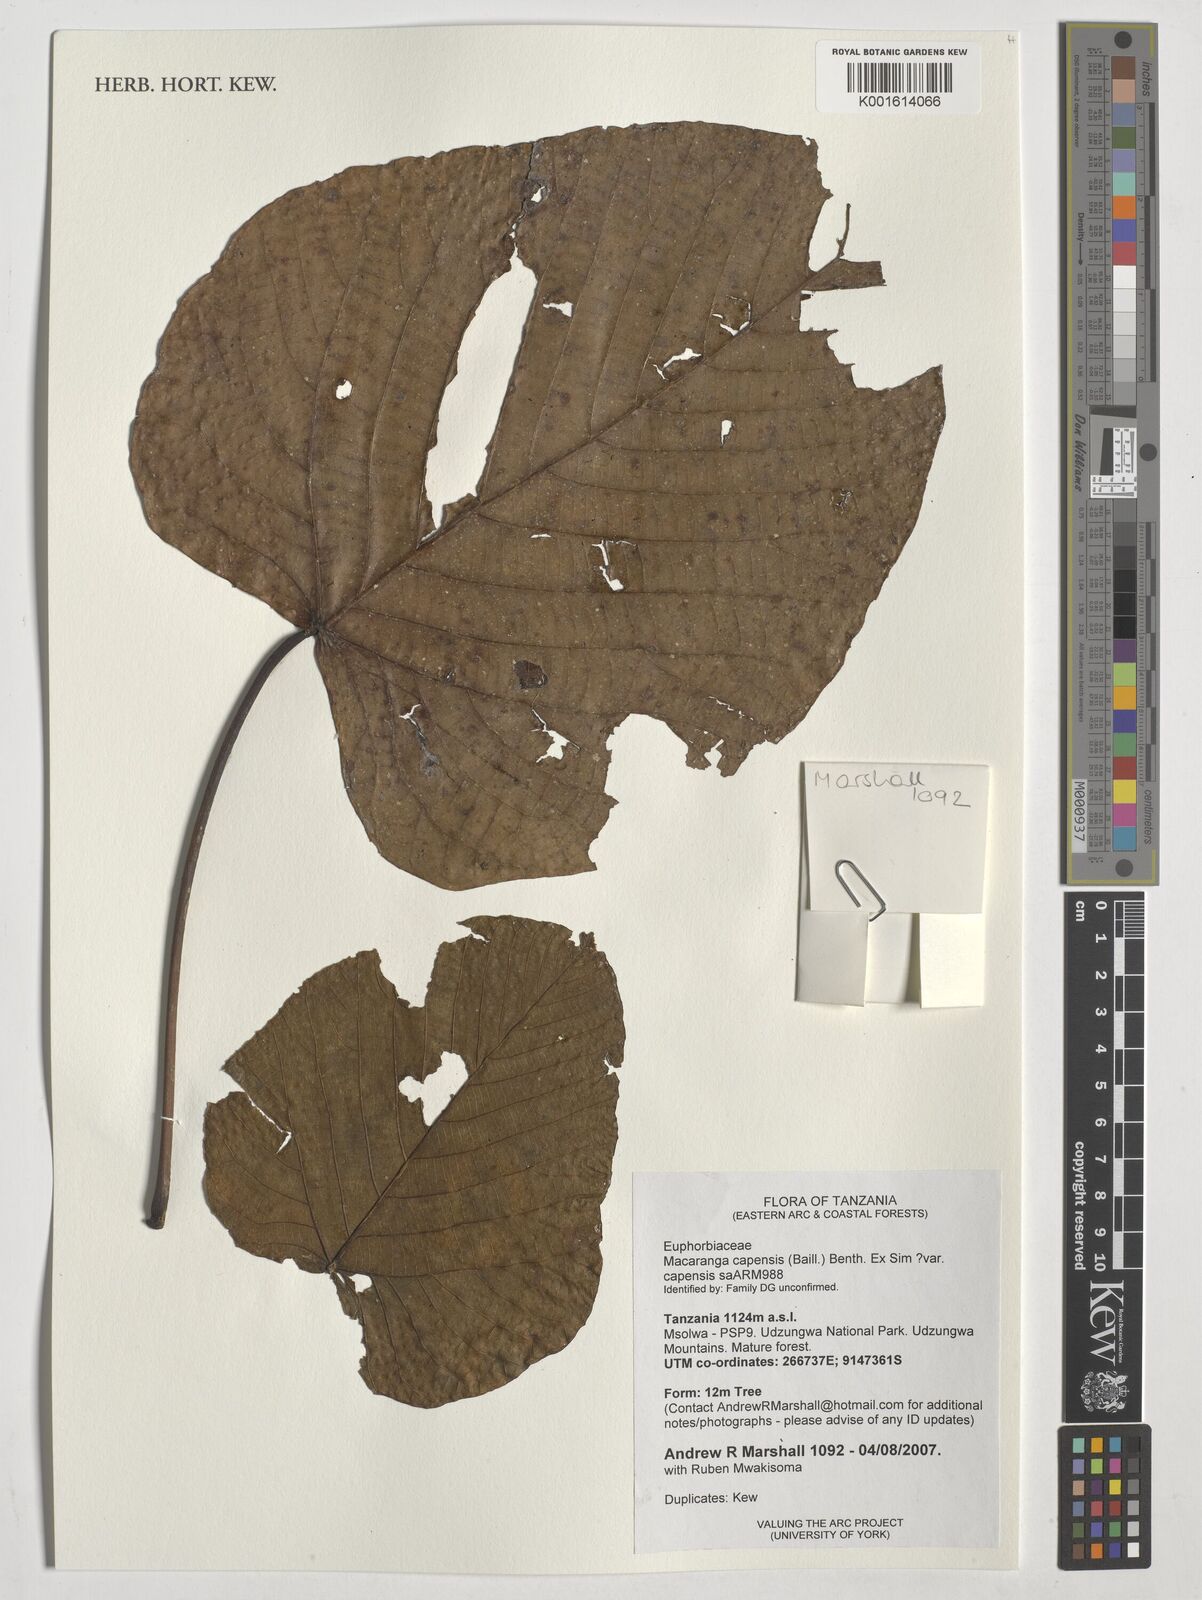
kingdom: Plantae
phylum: Tracheophyta
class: Magnoliopsida
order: Malpighiales
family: Euphorbiaceae
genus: Macaranga
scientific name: Macaranga capensis
